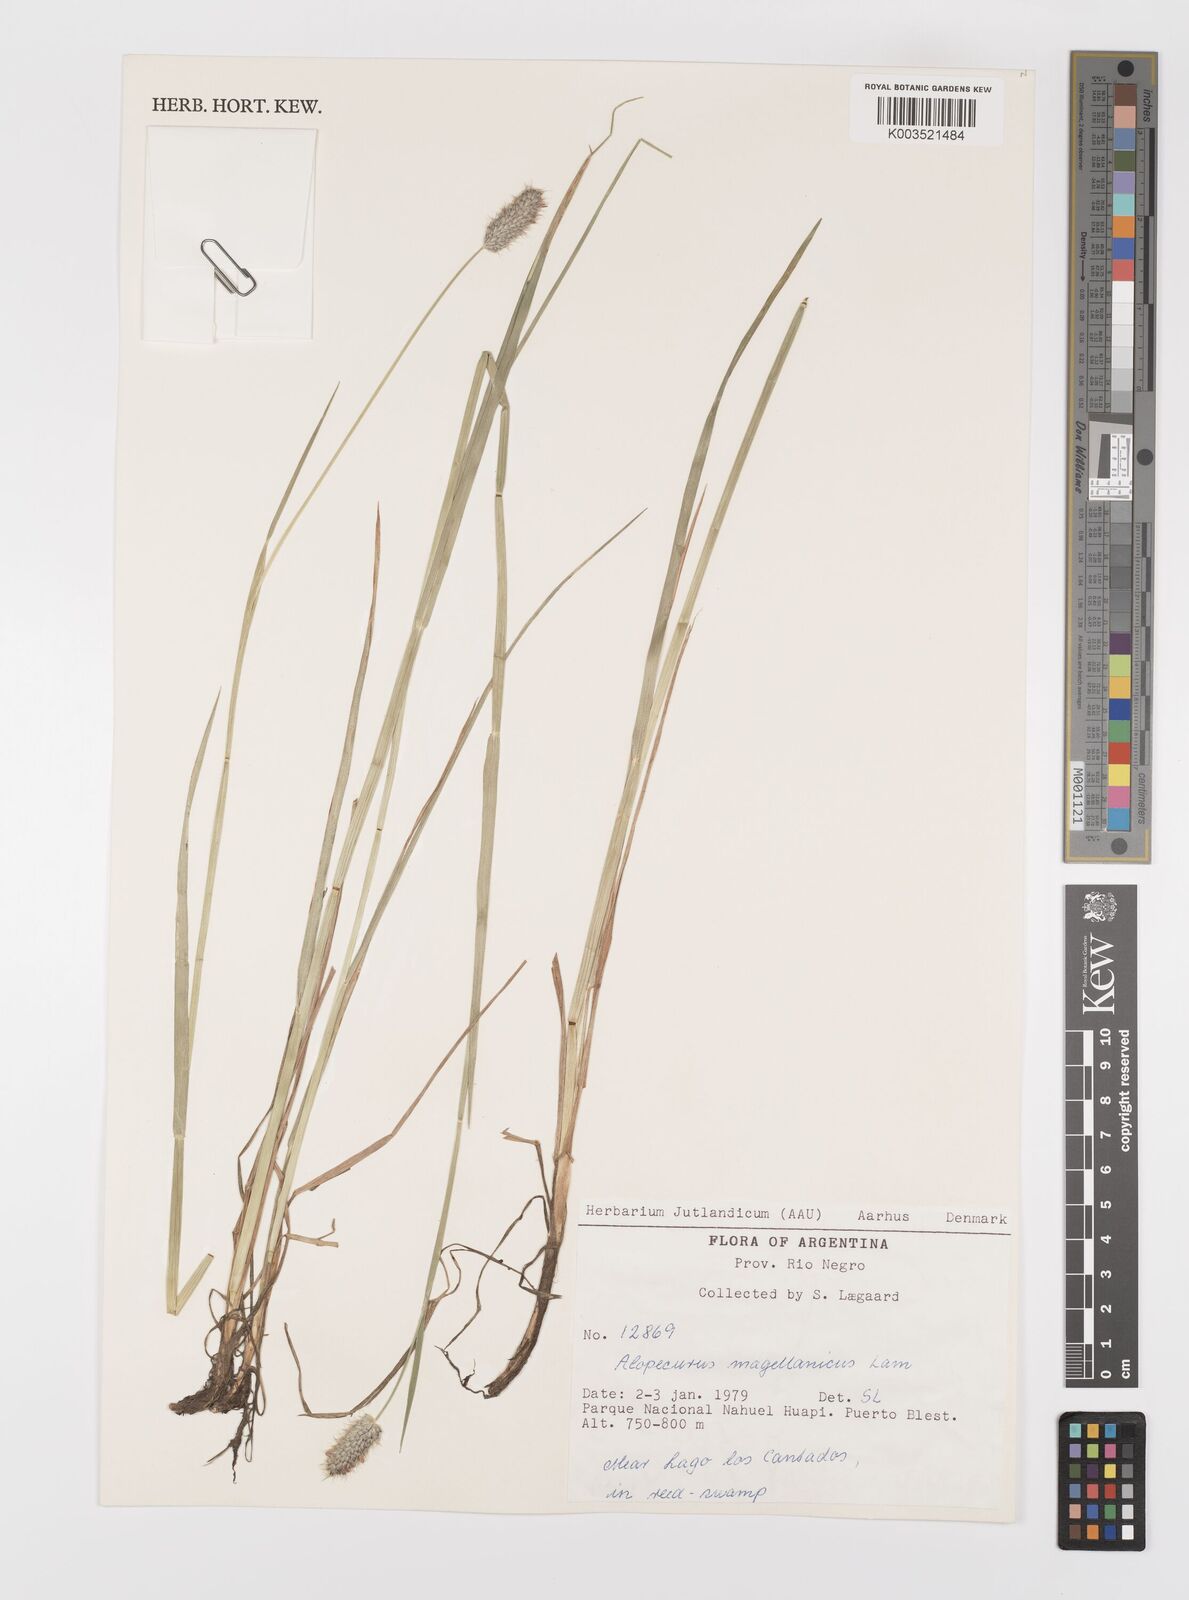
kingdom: Plantae
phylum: Tracheophyta
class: Liliopsida
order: Poales
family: Poaceae
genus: Alopecurus
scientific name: Alopecurus magellanicus
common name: Alpine foxtail
